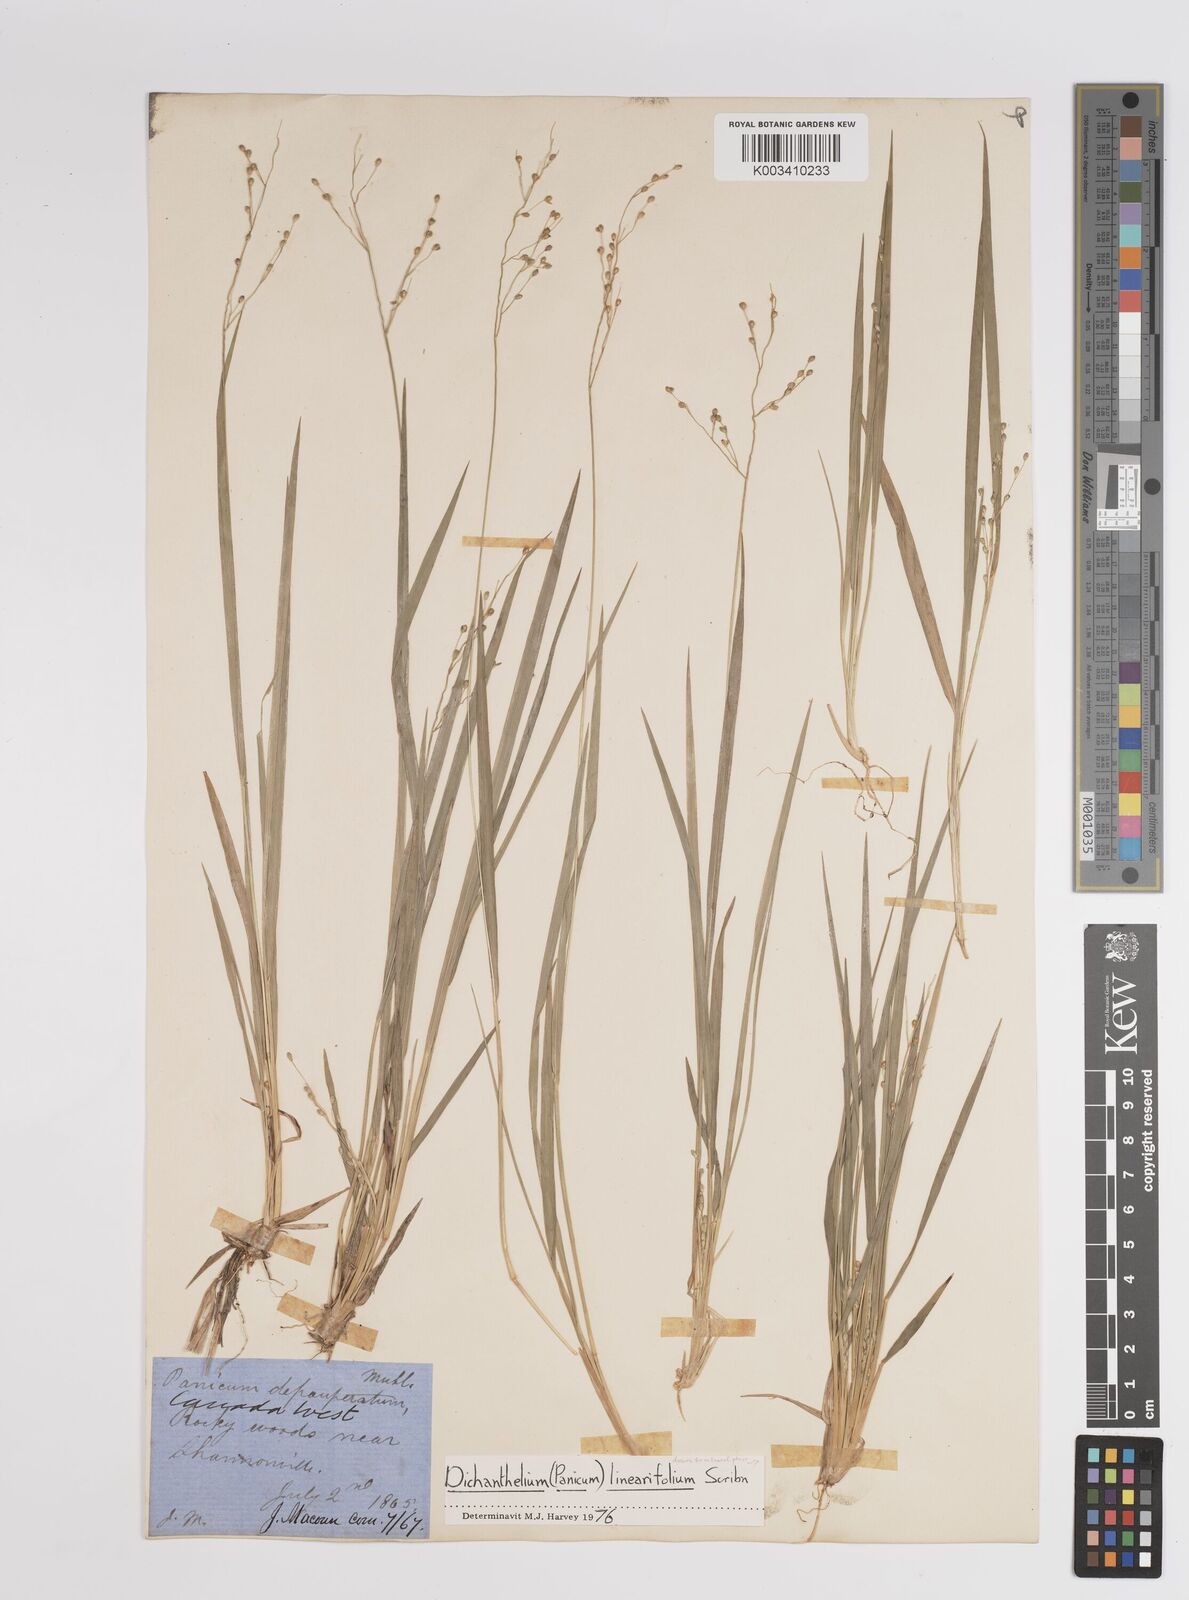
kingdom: Plantae
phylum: Tracheophyta
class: Liliopsida
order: Poales
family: Poaceae
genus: Dichanthelium
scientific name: Dichanthelium linearifolium
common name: Linear-leaved panicgrass
